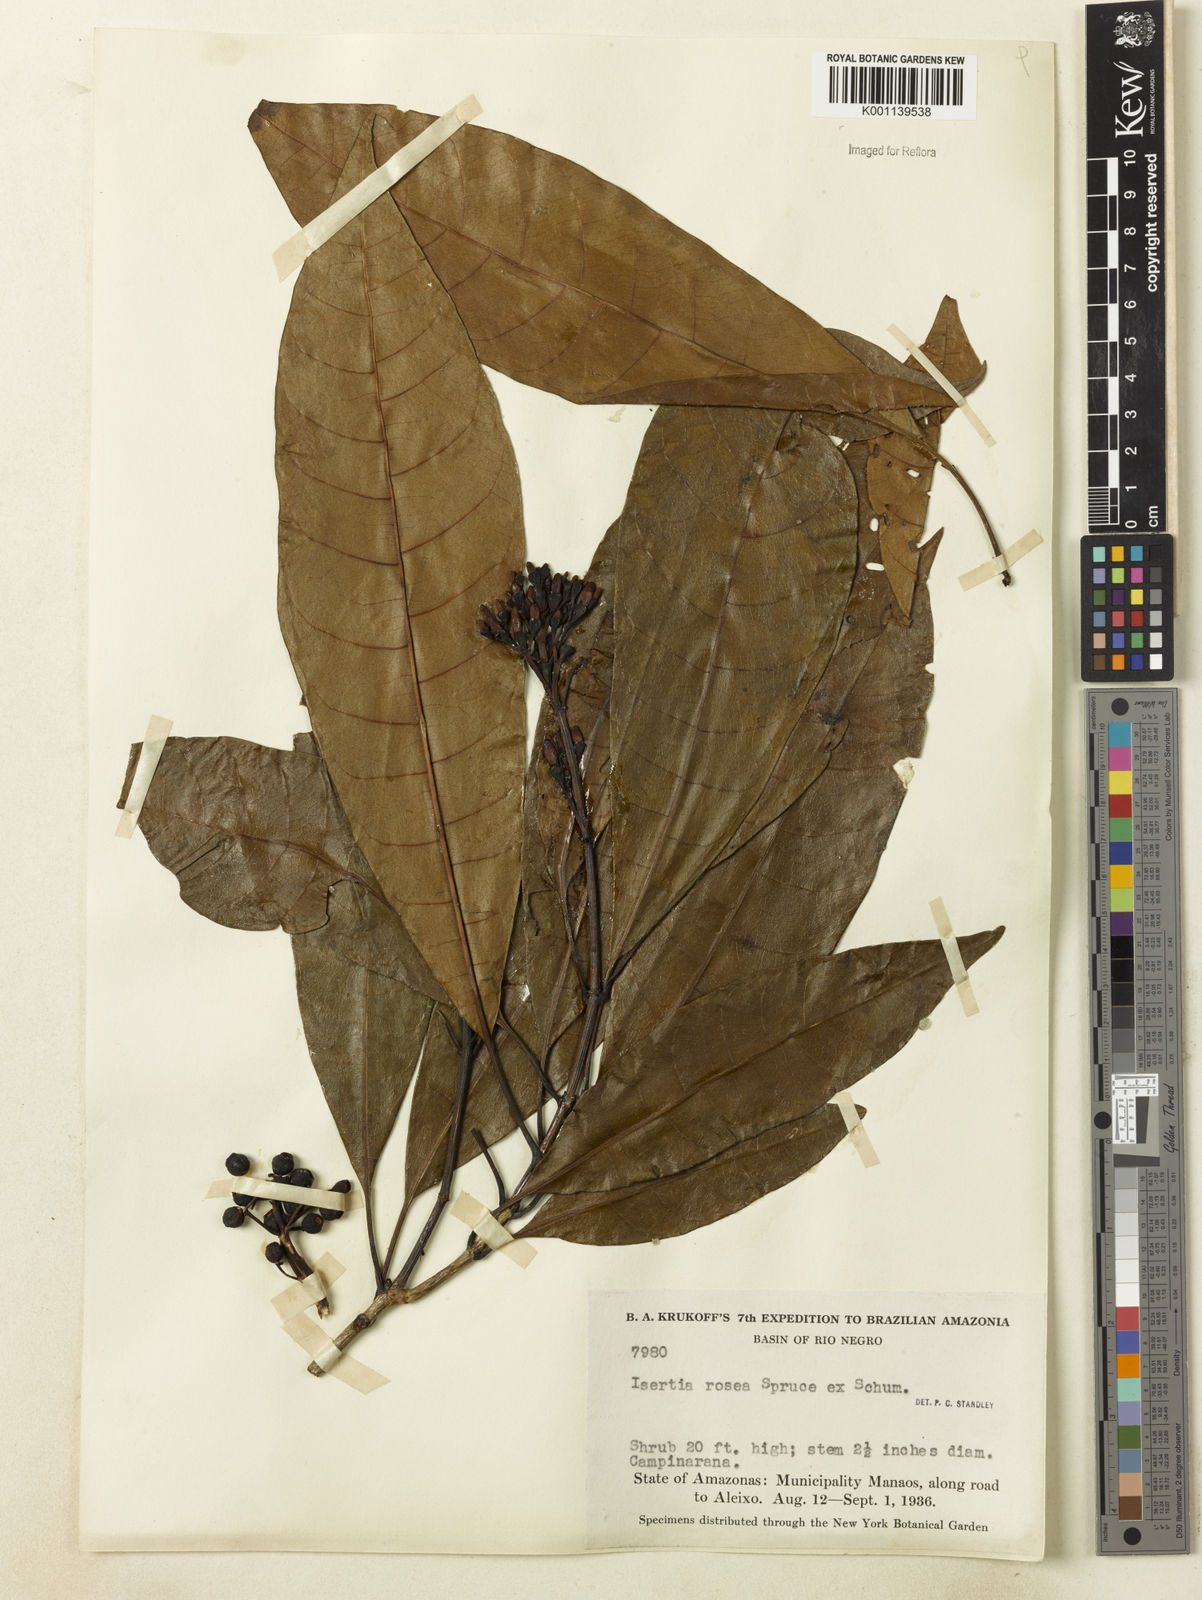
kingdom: Plantae
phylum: Tracheophyta
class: Magnoliopsida
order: Gentianales
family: Rubiaceae
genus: Isertia
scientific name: Isertia rosea
